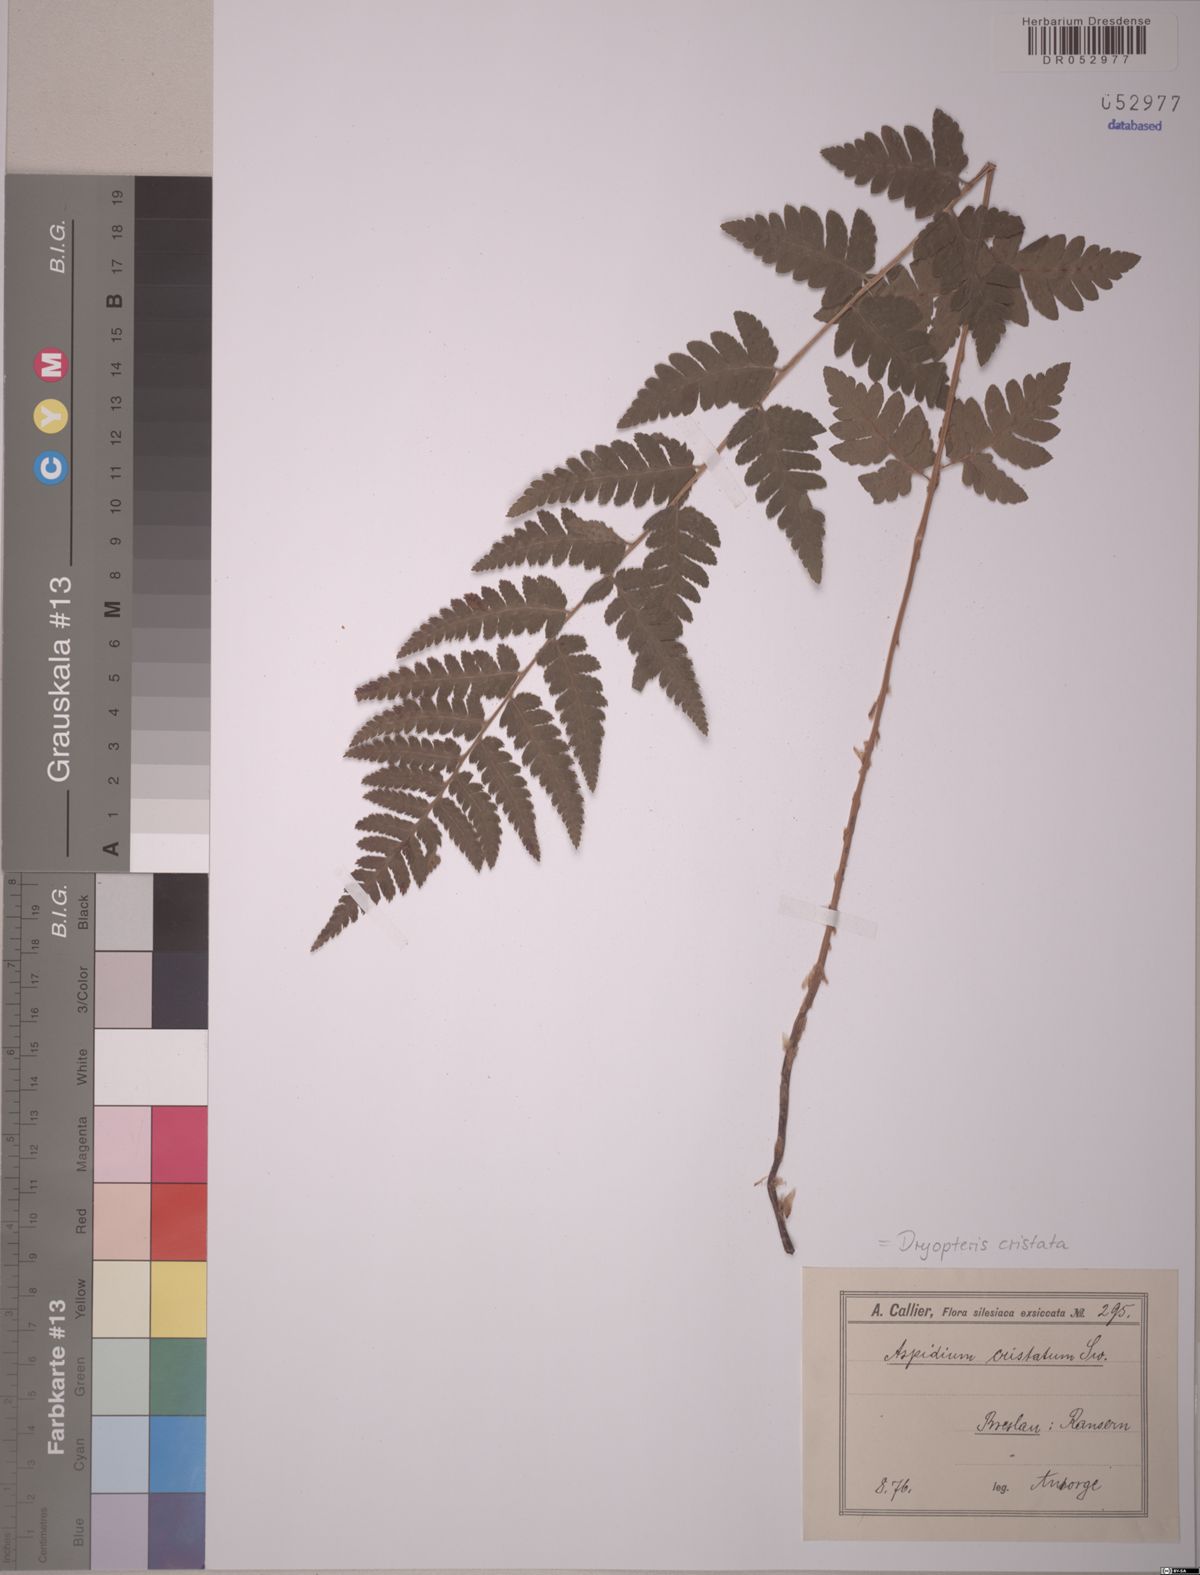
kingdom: Plantae
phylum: Tracheophyta
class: Polypodiopsida
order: Polypodiales
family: Dryopteridaceae
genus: Dryopteris
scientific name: Dryopteris cristata
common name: Crested wood fern
